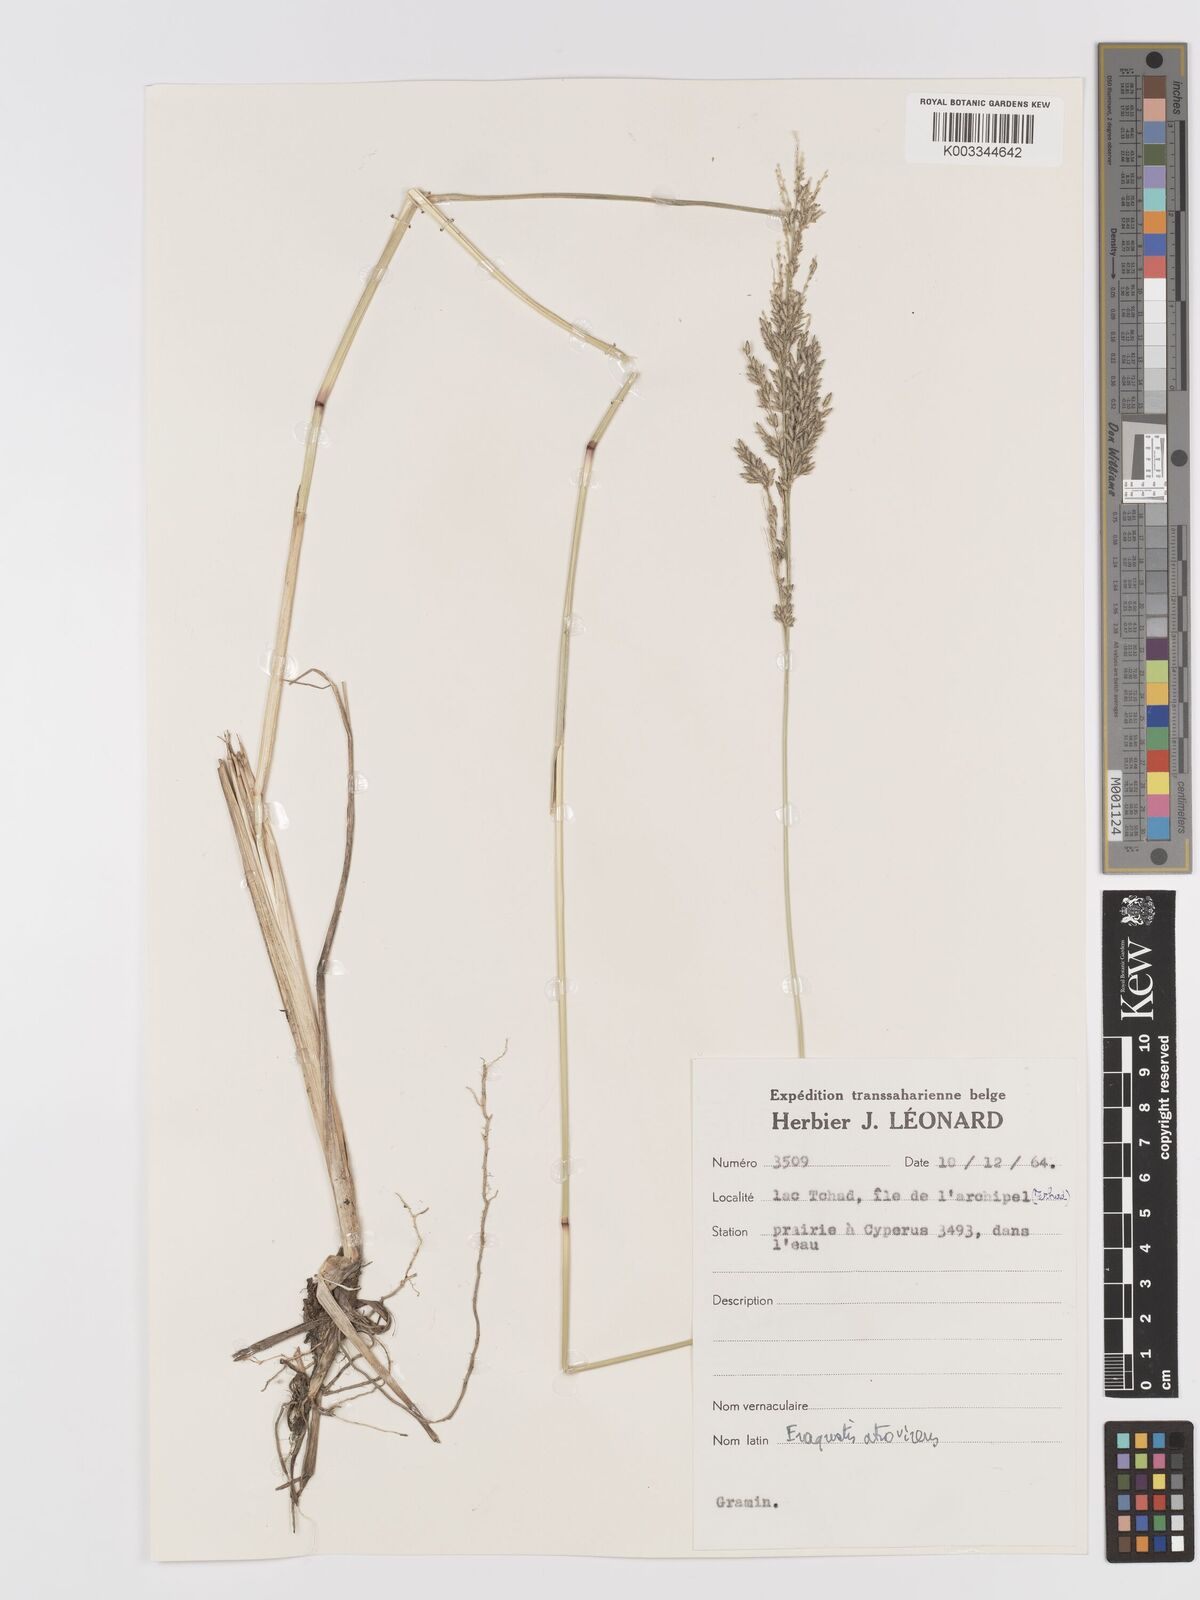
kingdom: Plantae
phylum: Tracheophyta
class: Liliopsida
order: Poales
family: Poaceae
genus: Eragrostis
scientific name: Eragrostis
